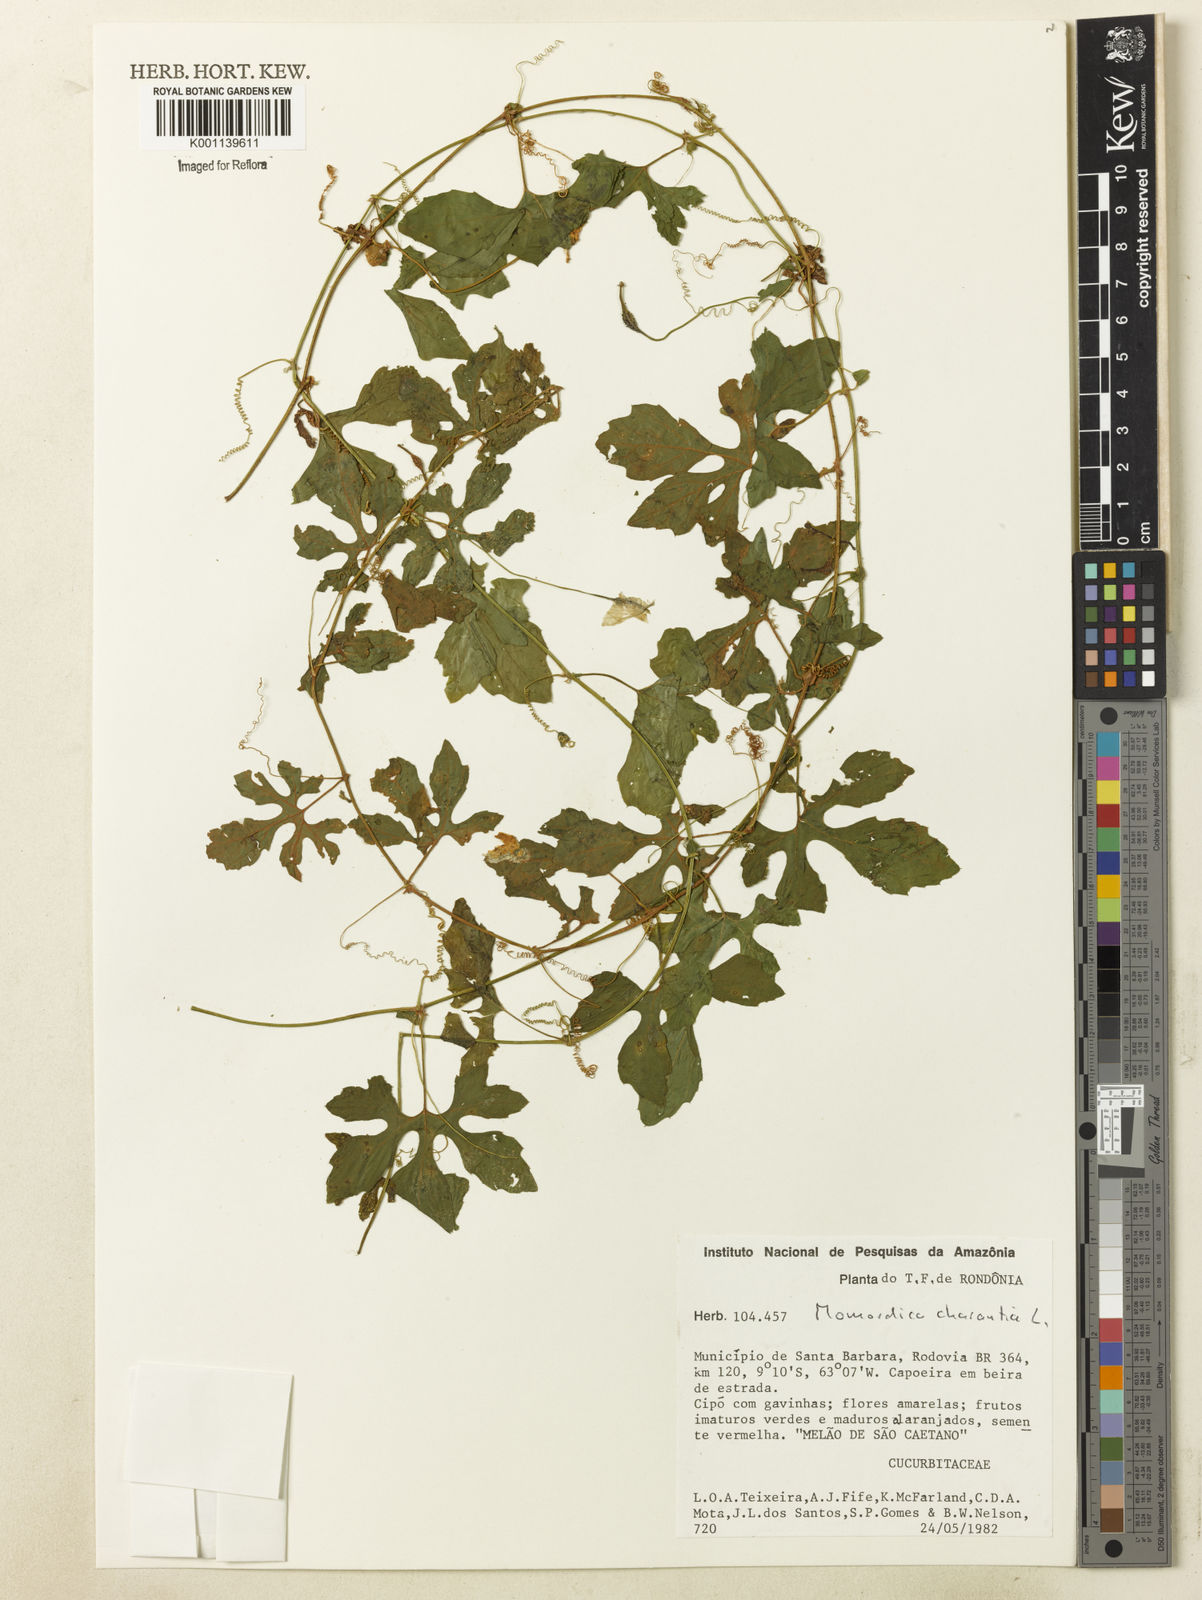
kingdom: Plantae
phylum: Tracheophyta
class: Magnoliopsida
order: Cucurbitales
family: Cucurbitaceae
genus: Momordica
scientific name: Momordica charantia
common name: Balsampear
